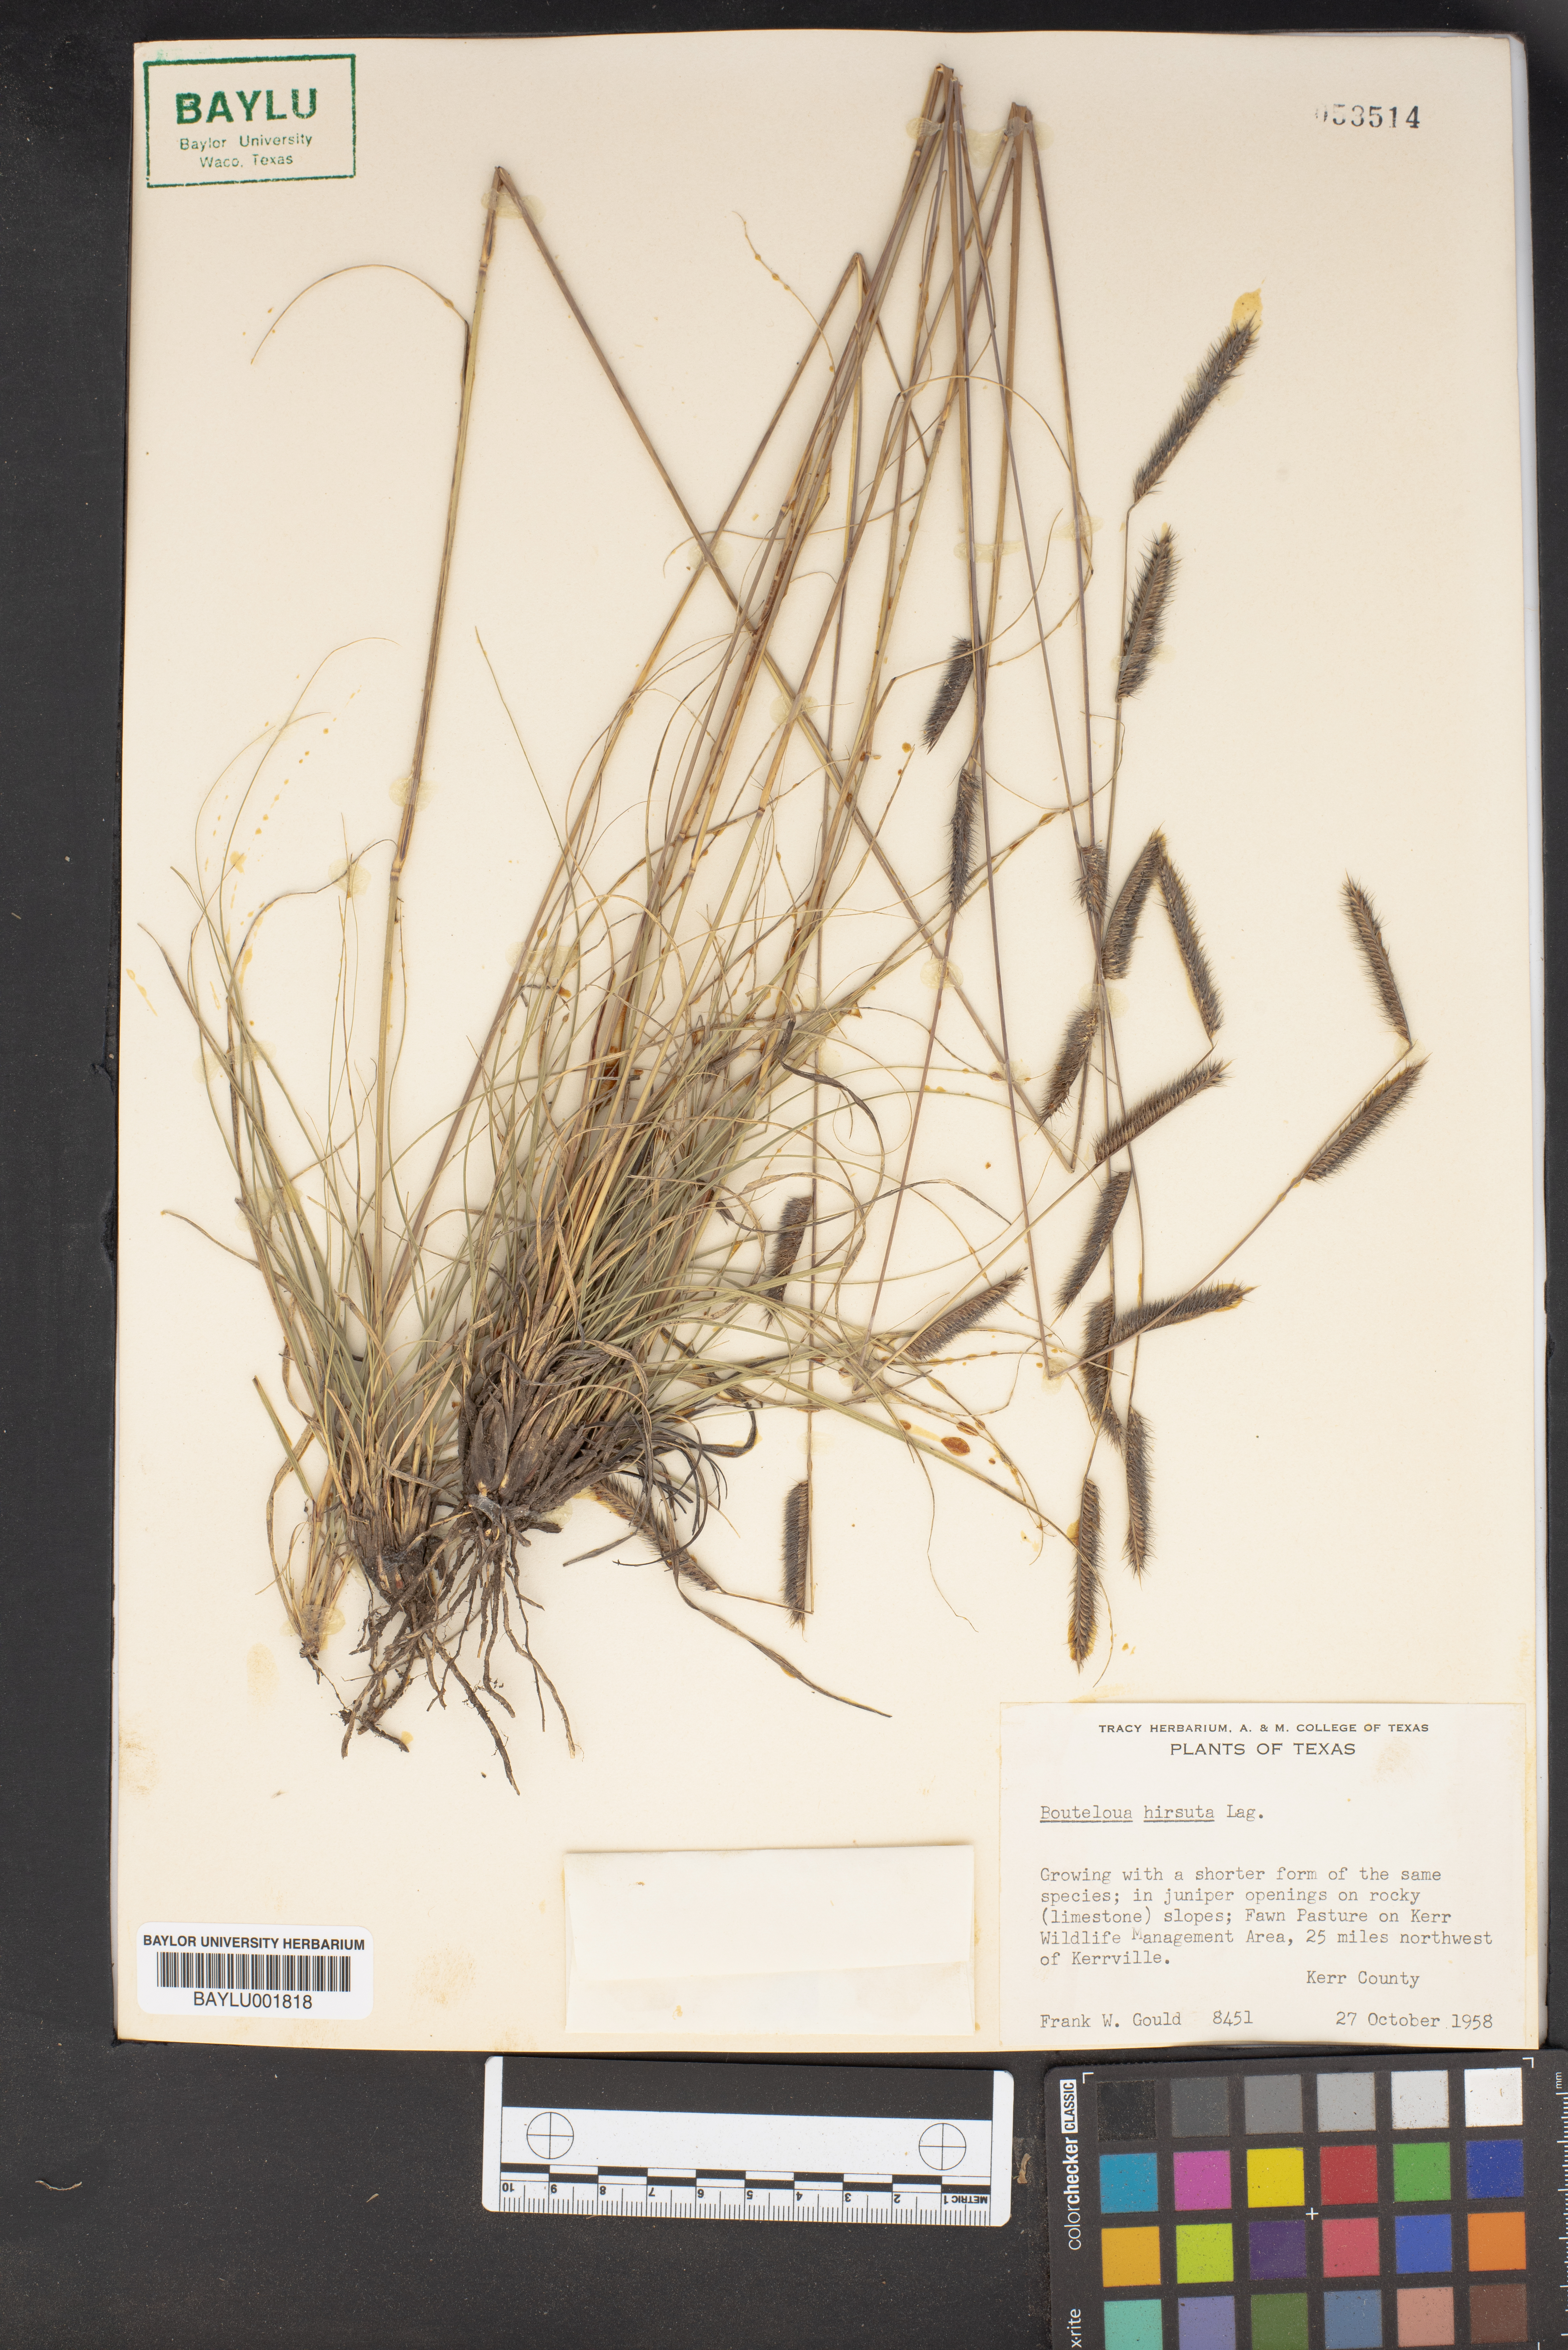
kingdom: Plantae
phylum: Tracheophyta
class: Liliopsida
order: Poales
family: Poaceae
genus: Bouteloua
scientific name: Bouteloua hirsuta
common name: Hairy grama
